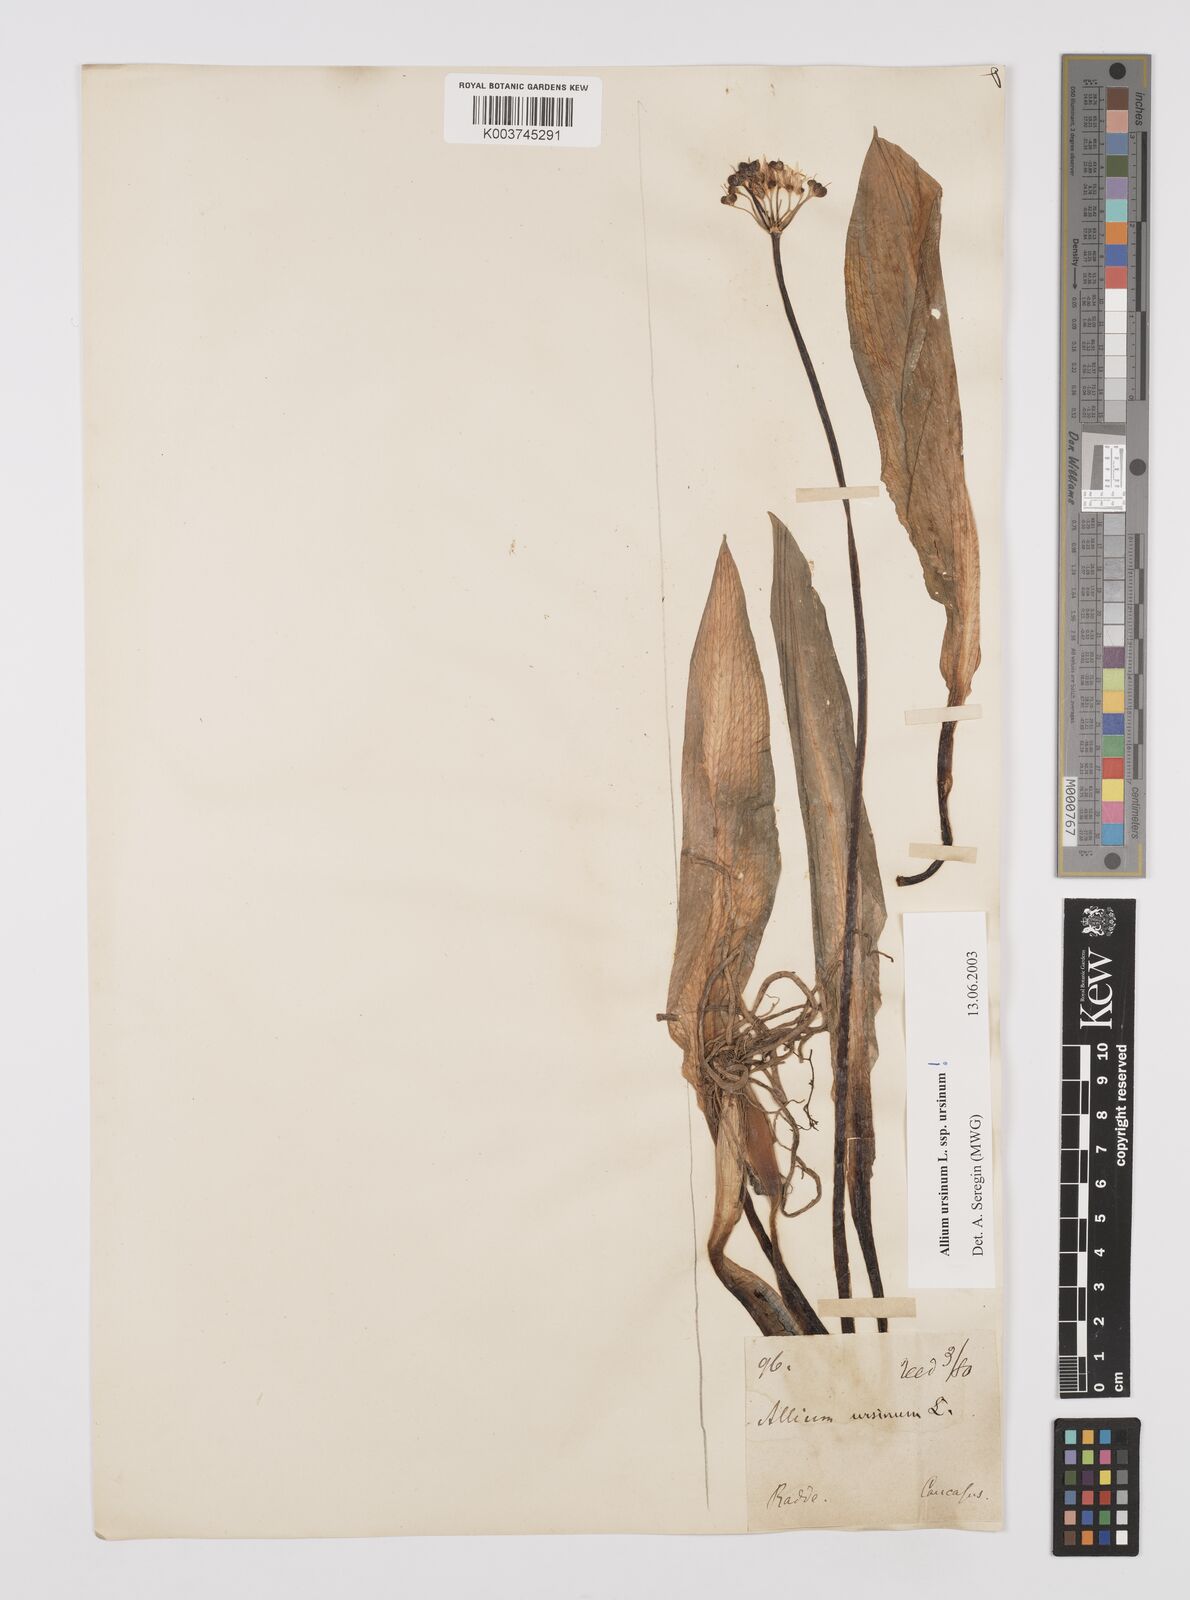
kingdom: Plantae
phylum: Tracheophyta
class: Liliopsida
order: Asparagales
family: Amaryllidaceae
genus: Allium
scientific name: Allium ursinum
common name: Ramsons
